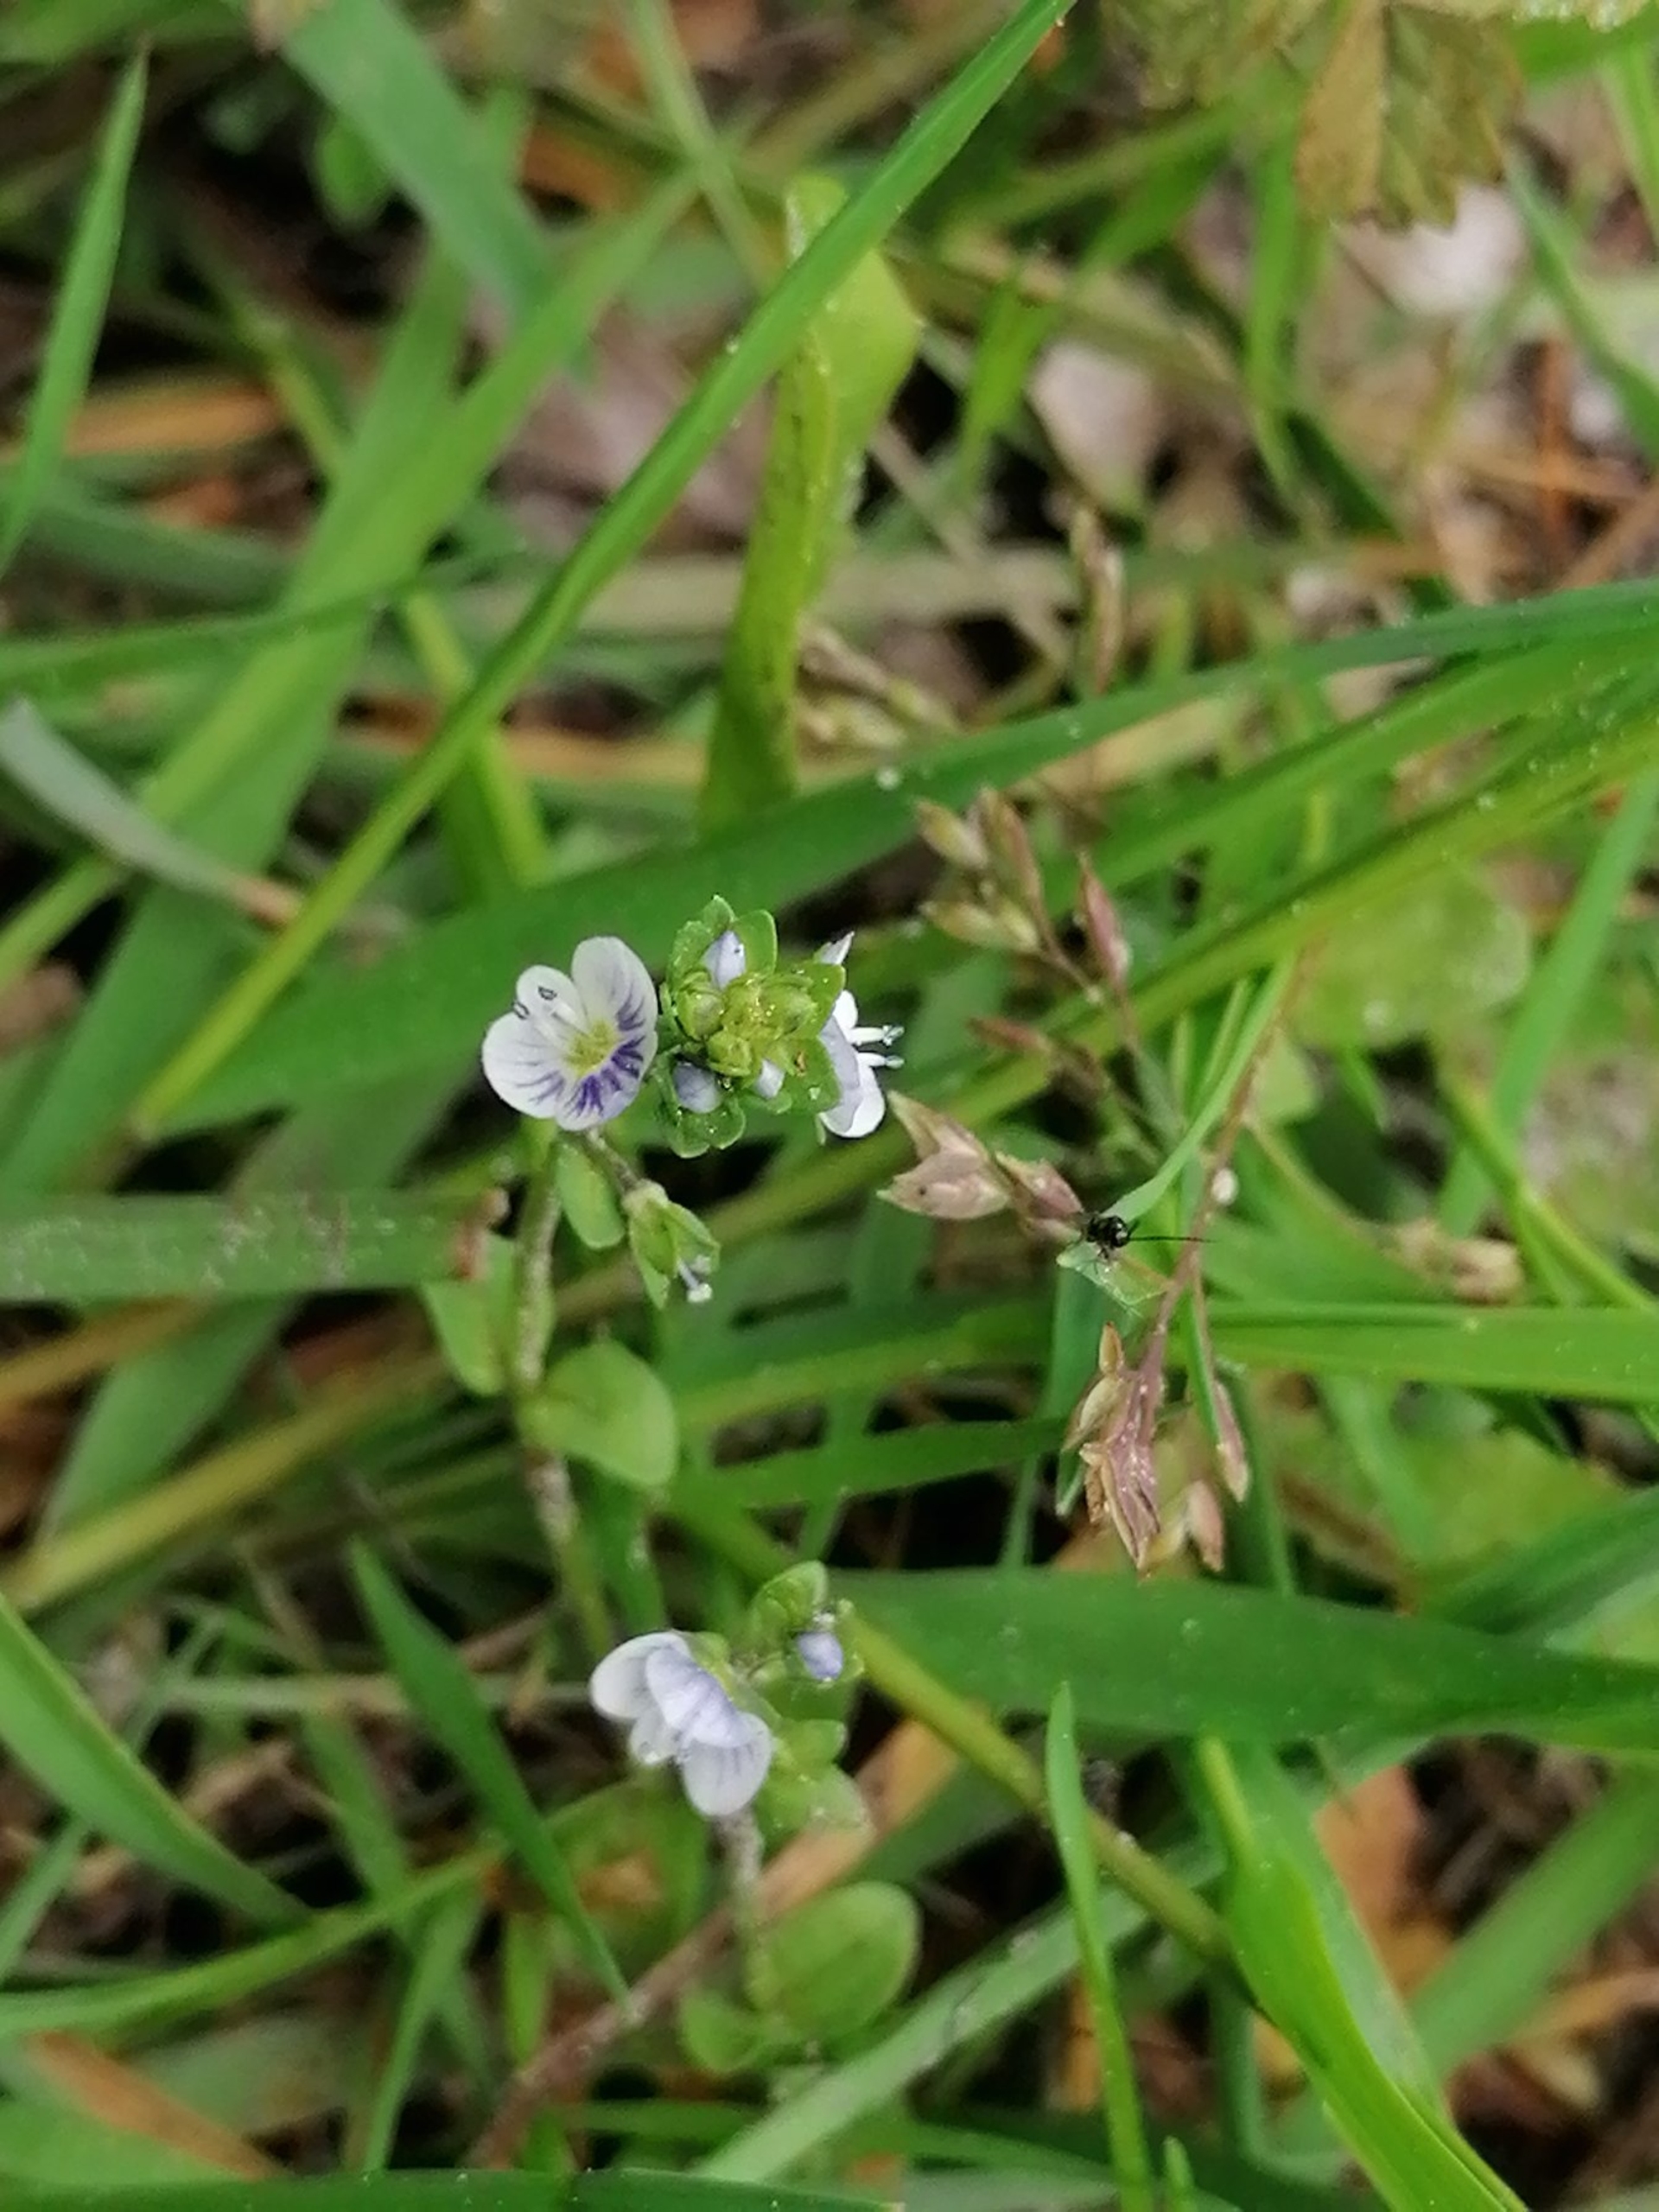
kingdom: Plantae
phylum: Tracheophyta
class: Magnoliopsida
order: Lamiales
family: Plantaginaceae
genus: Veronica
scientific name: Veronica serpyllifolia
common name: Glat ærenpris
